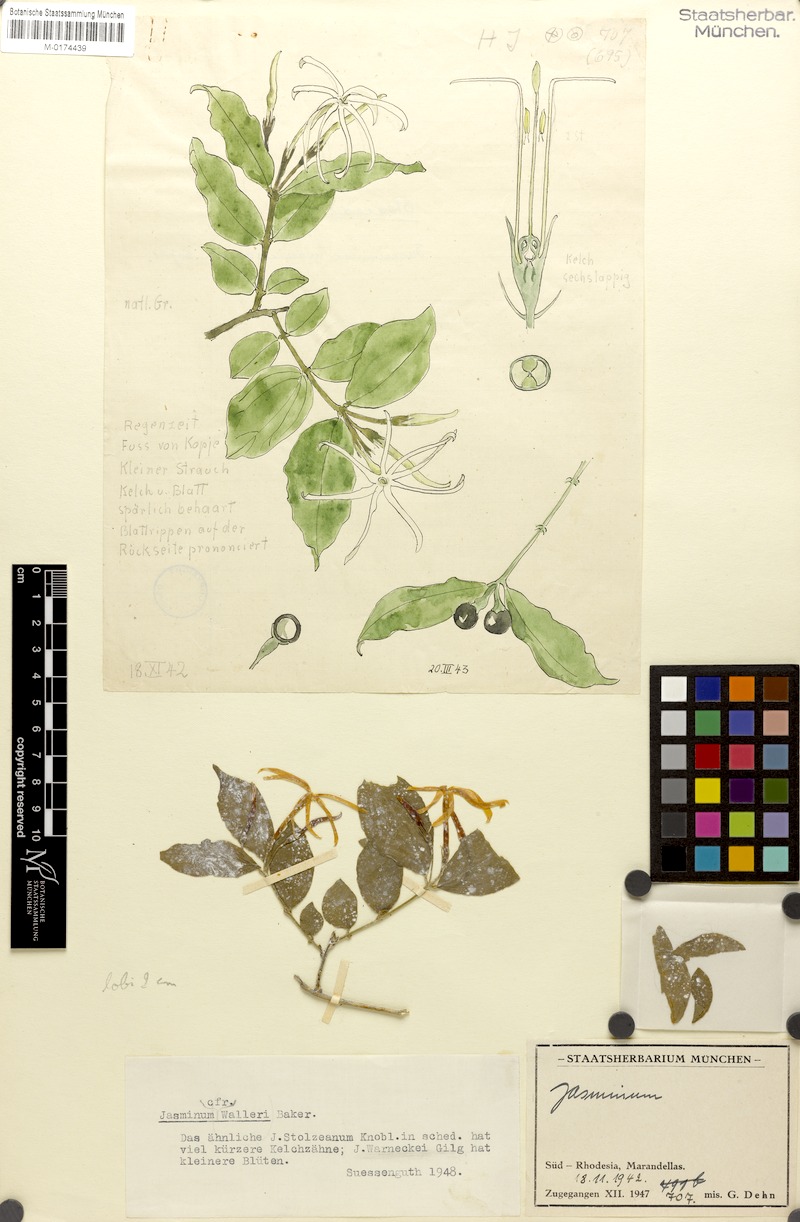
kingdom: Plantae
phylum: Tracheophyta
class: Magnoliopsida
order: Lamiales
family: Oleaceae
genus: Jasminum
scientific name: Jasminum
